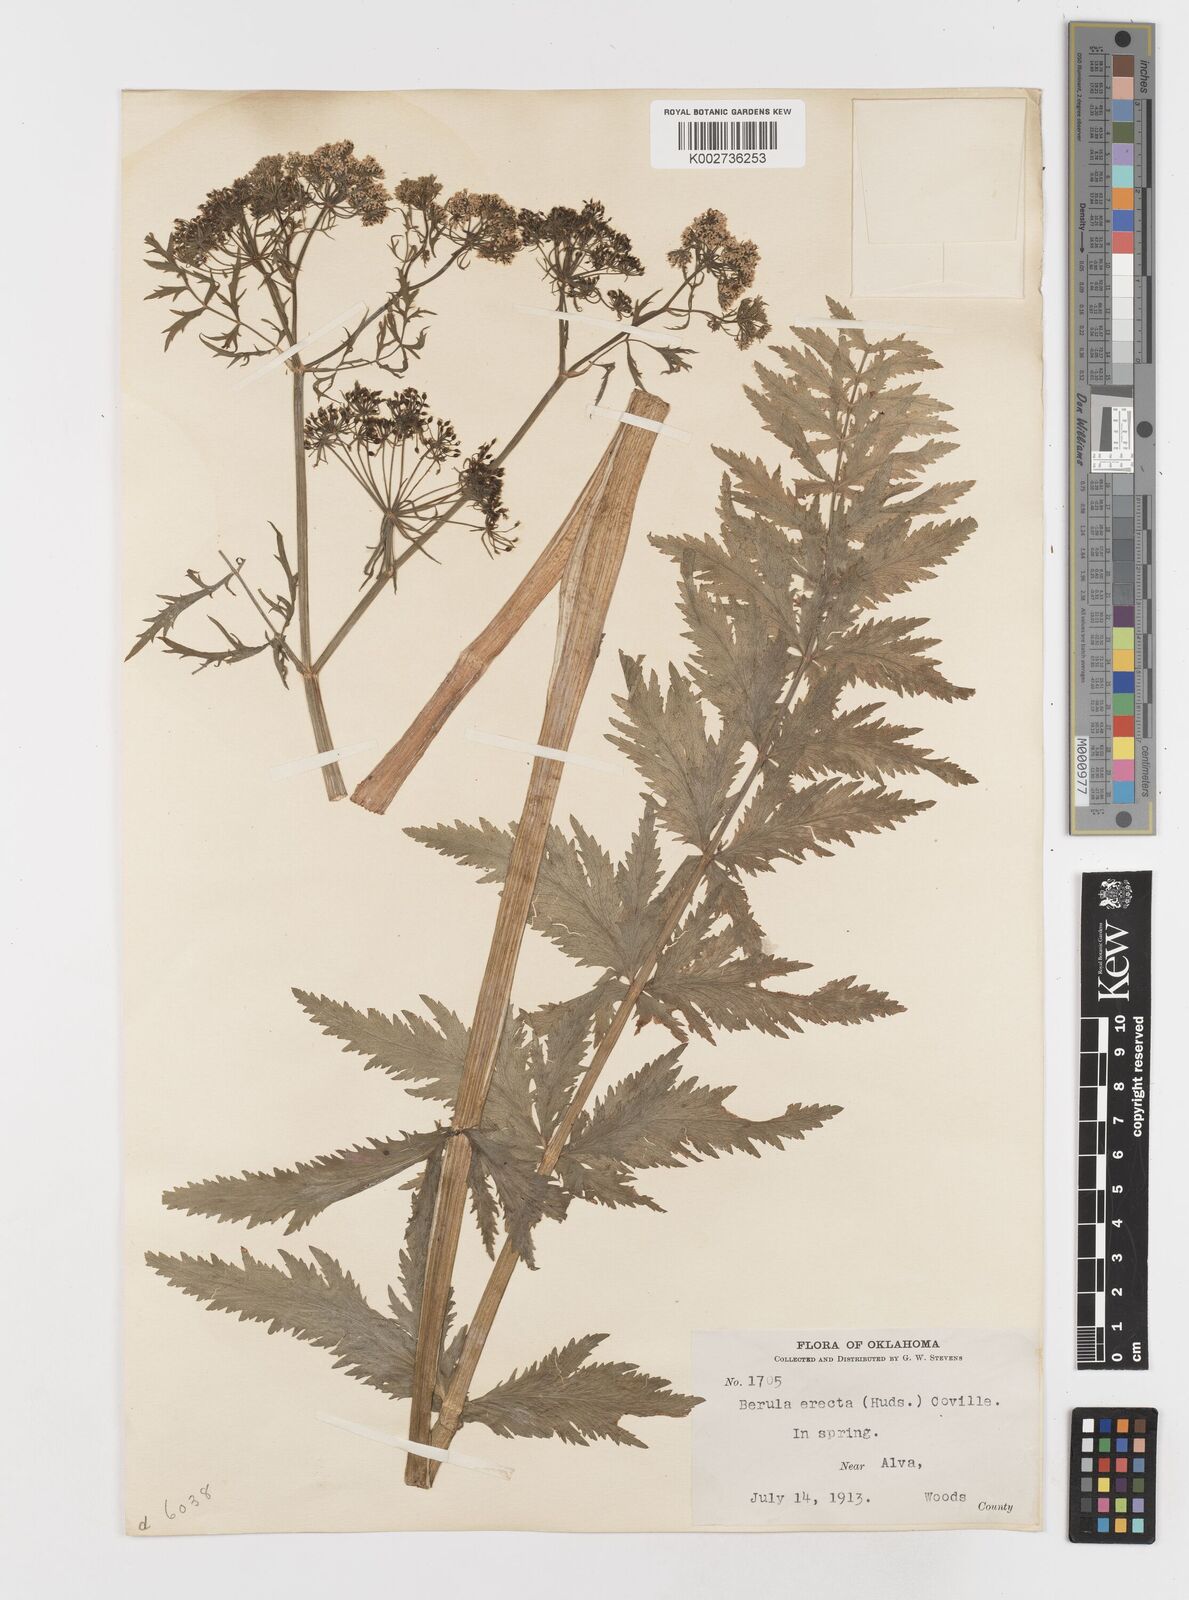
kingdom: Plantae
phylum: Tracheophyta
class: Magnoliopsida
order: Apiales
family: Apiaceae
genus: Berula
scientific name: Berula erecta
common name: Lesser water-parsnip
